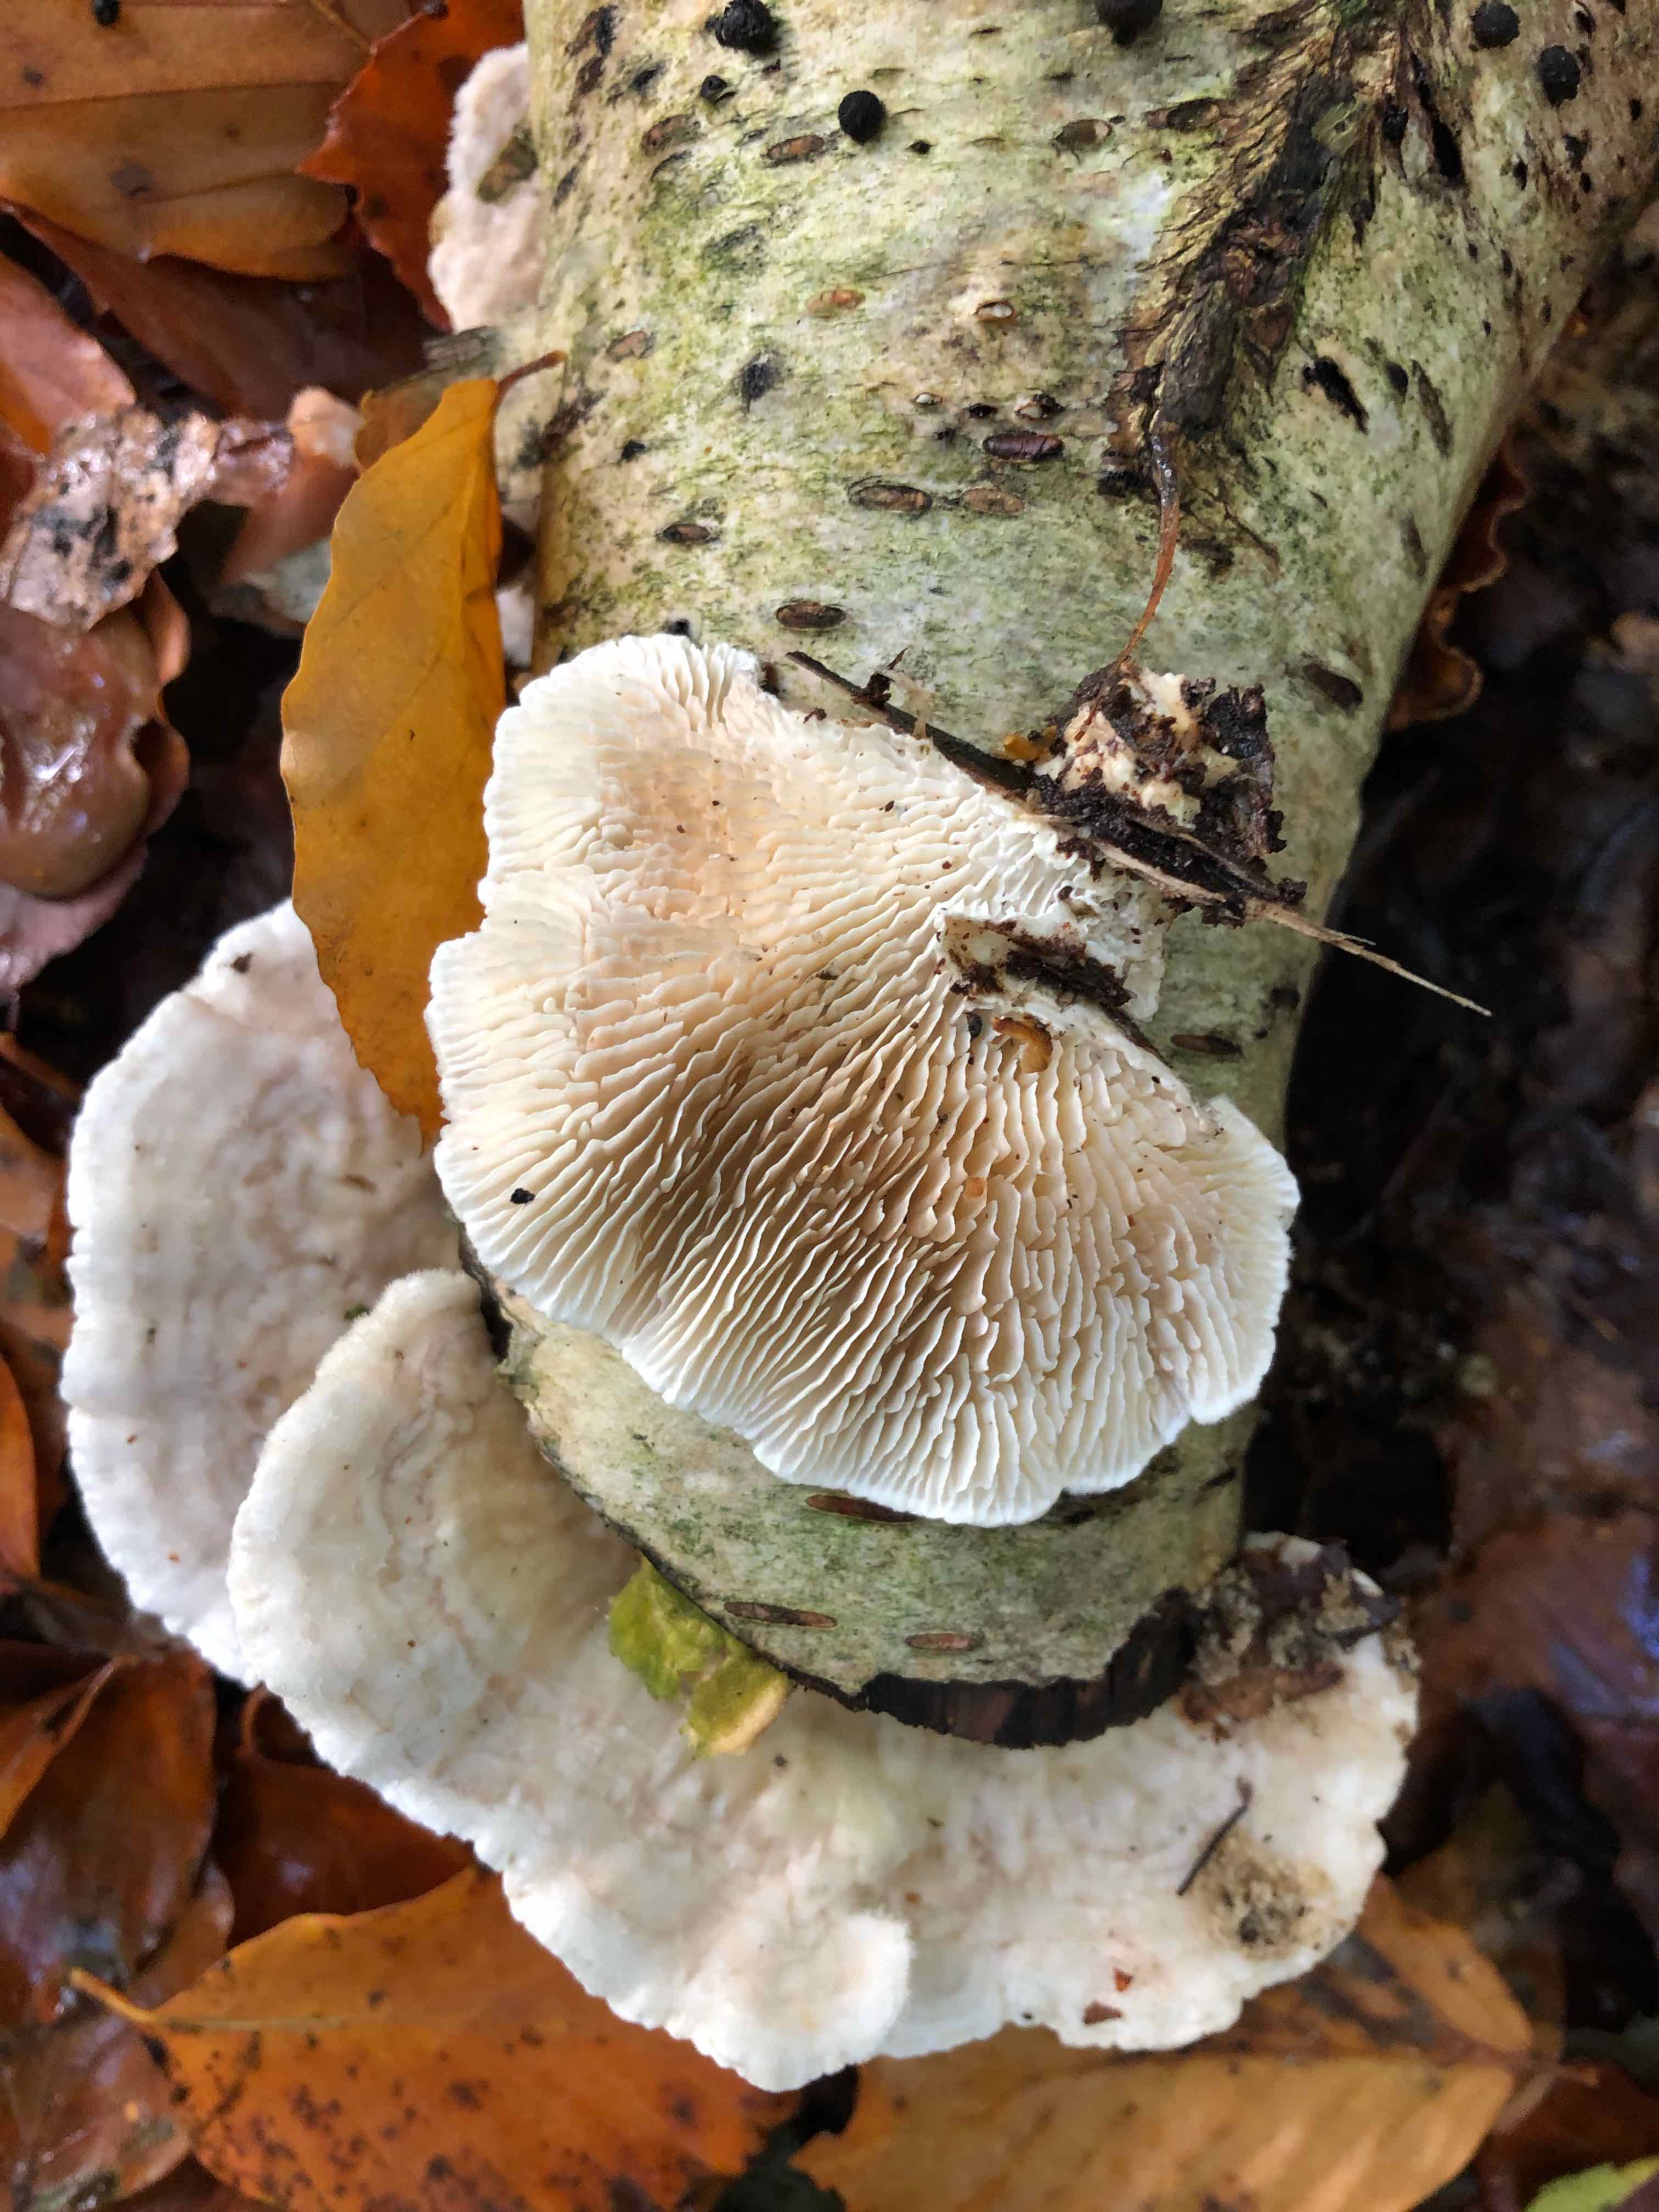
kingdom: Fungi
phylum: Basidiomycota
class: Agaricomycetes
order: Polyporales
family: Polyporaceae
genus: Lenzites
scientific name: Lenzites betulinus
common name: birke-læderporesvamp
